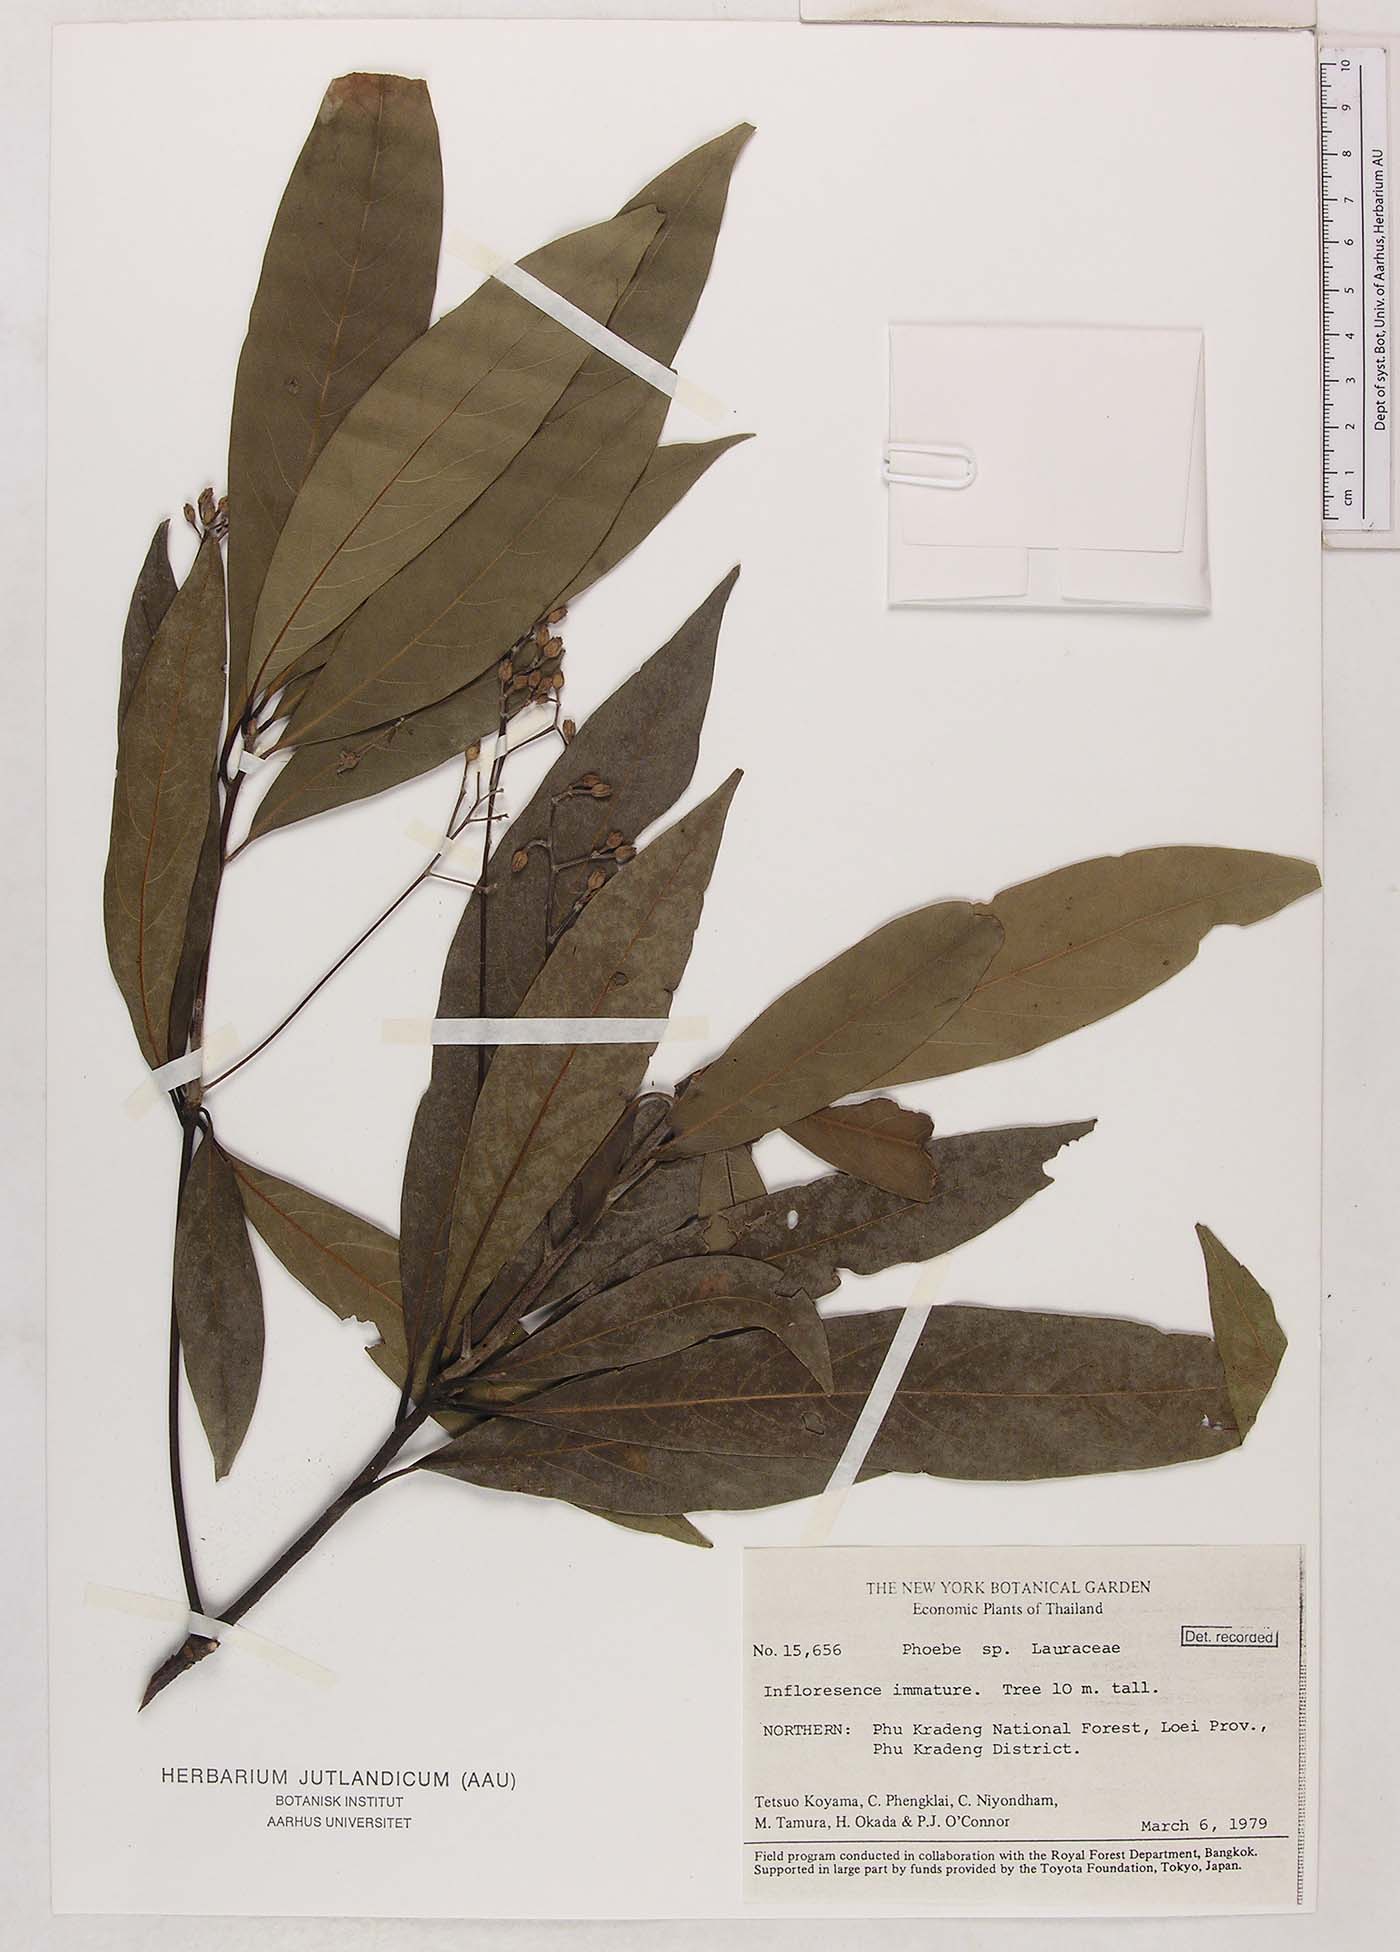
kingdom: Plantae
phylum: Tracheophyta
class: Magnoliopsida
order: Laurales
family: Lauraceae
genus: Phoebe
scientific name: Phoebe
